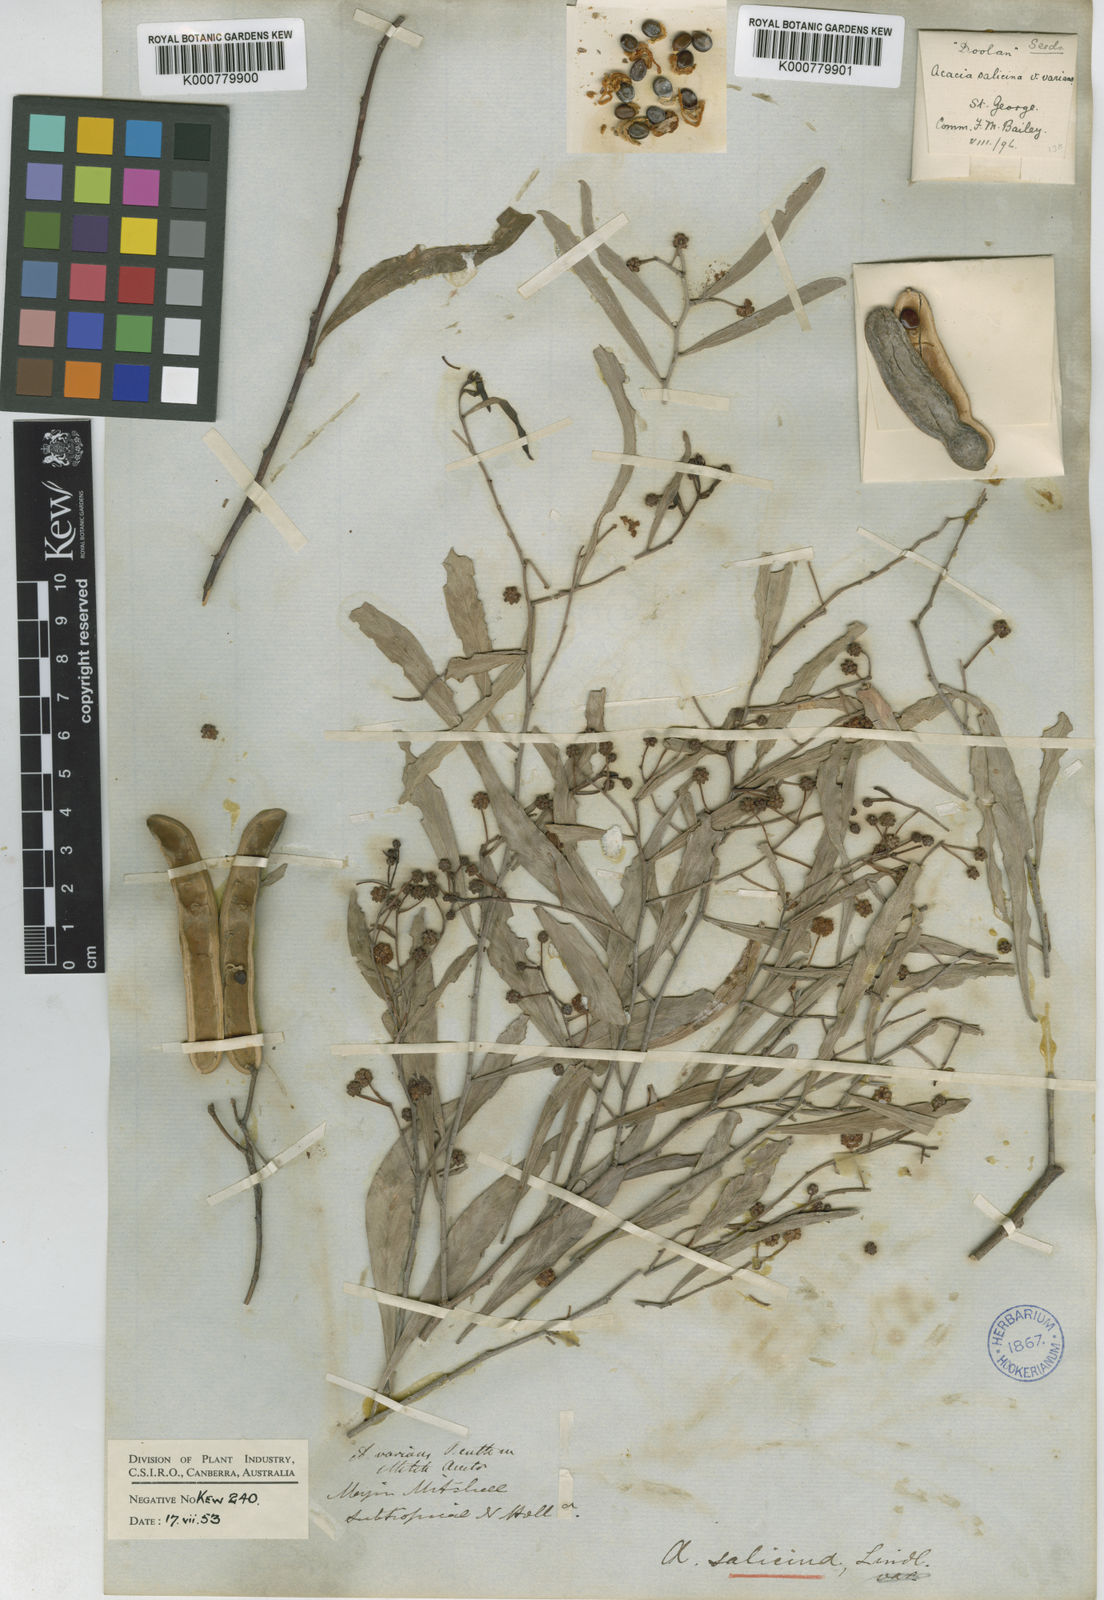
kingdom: Plantae
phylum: Tracheophyta
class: Magnoliopsida
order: Fabales
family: Fabaceae
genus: Acacia
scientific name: Acacia salicina
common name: Broughton willow wattle
